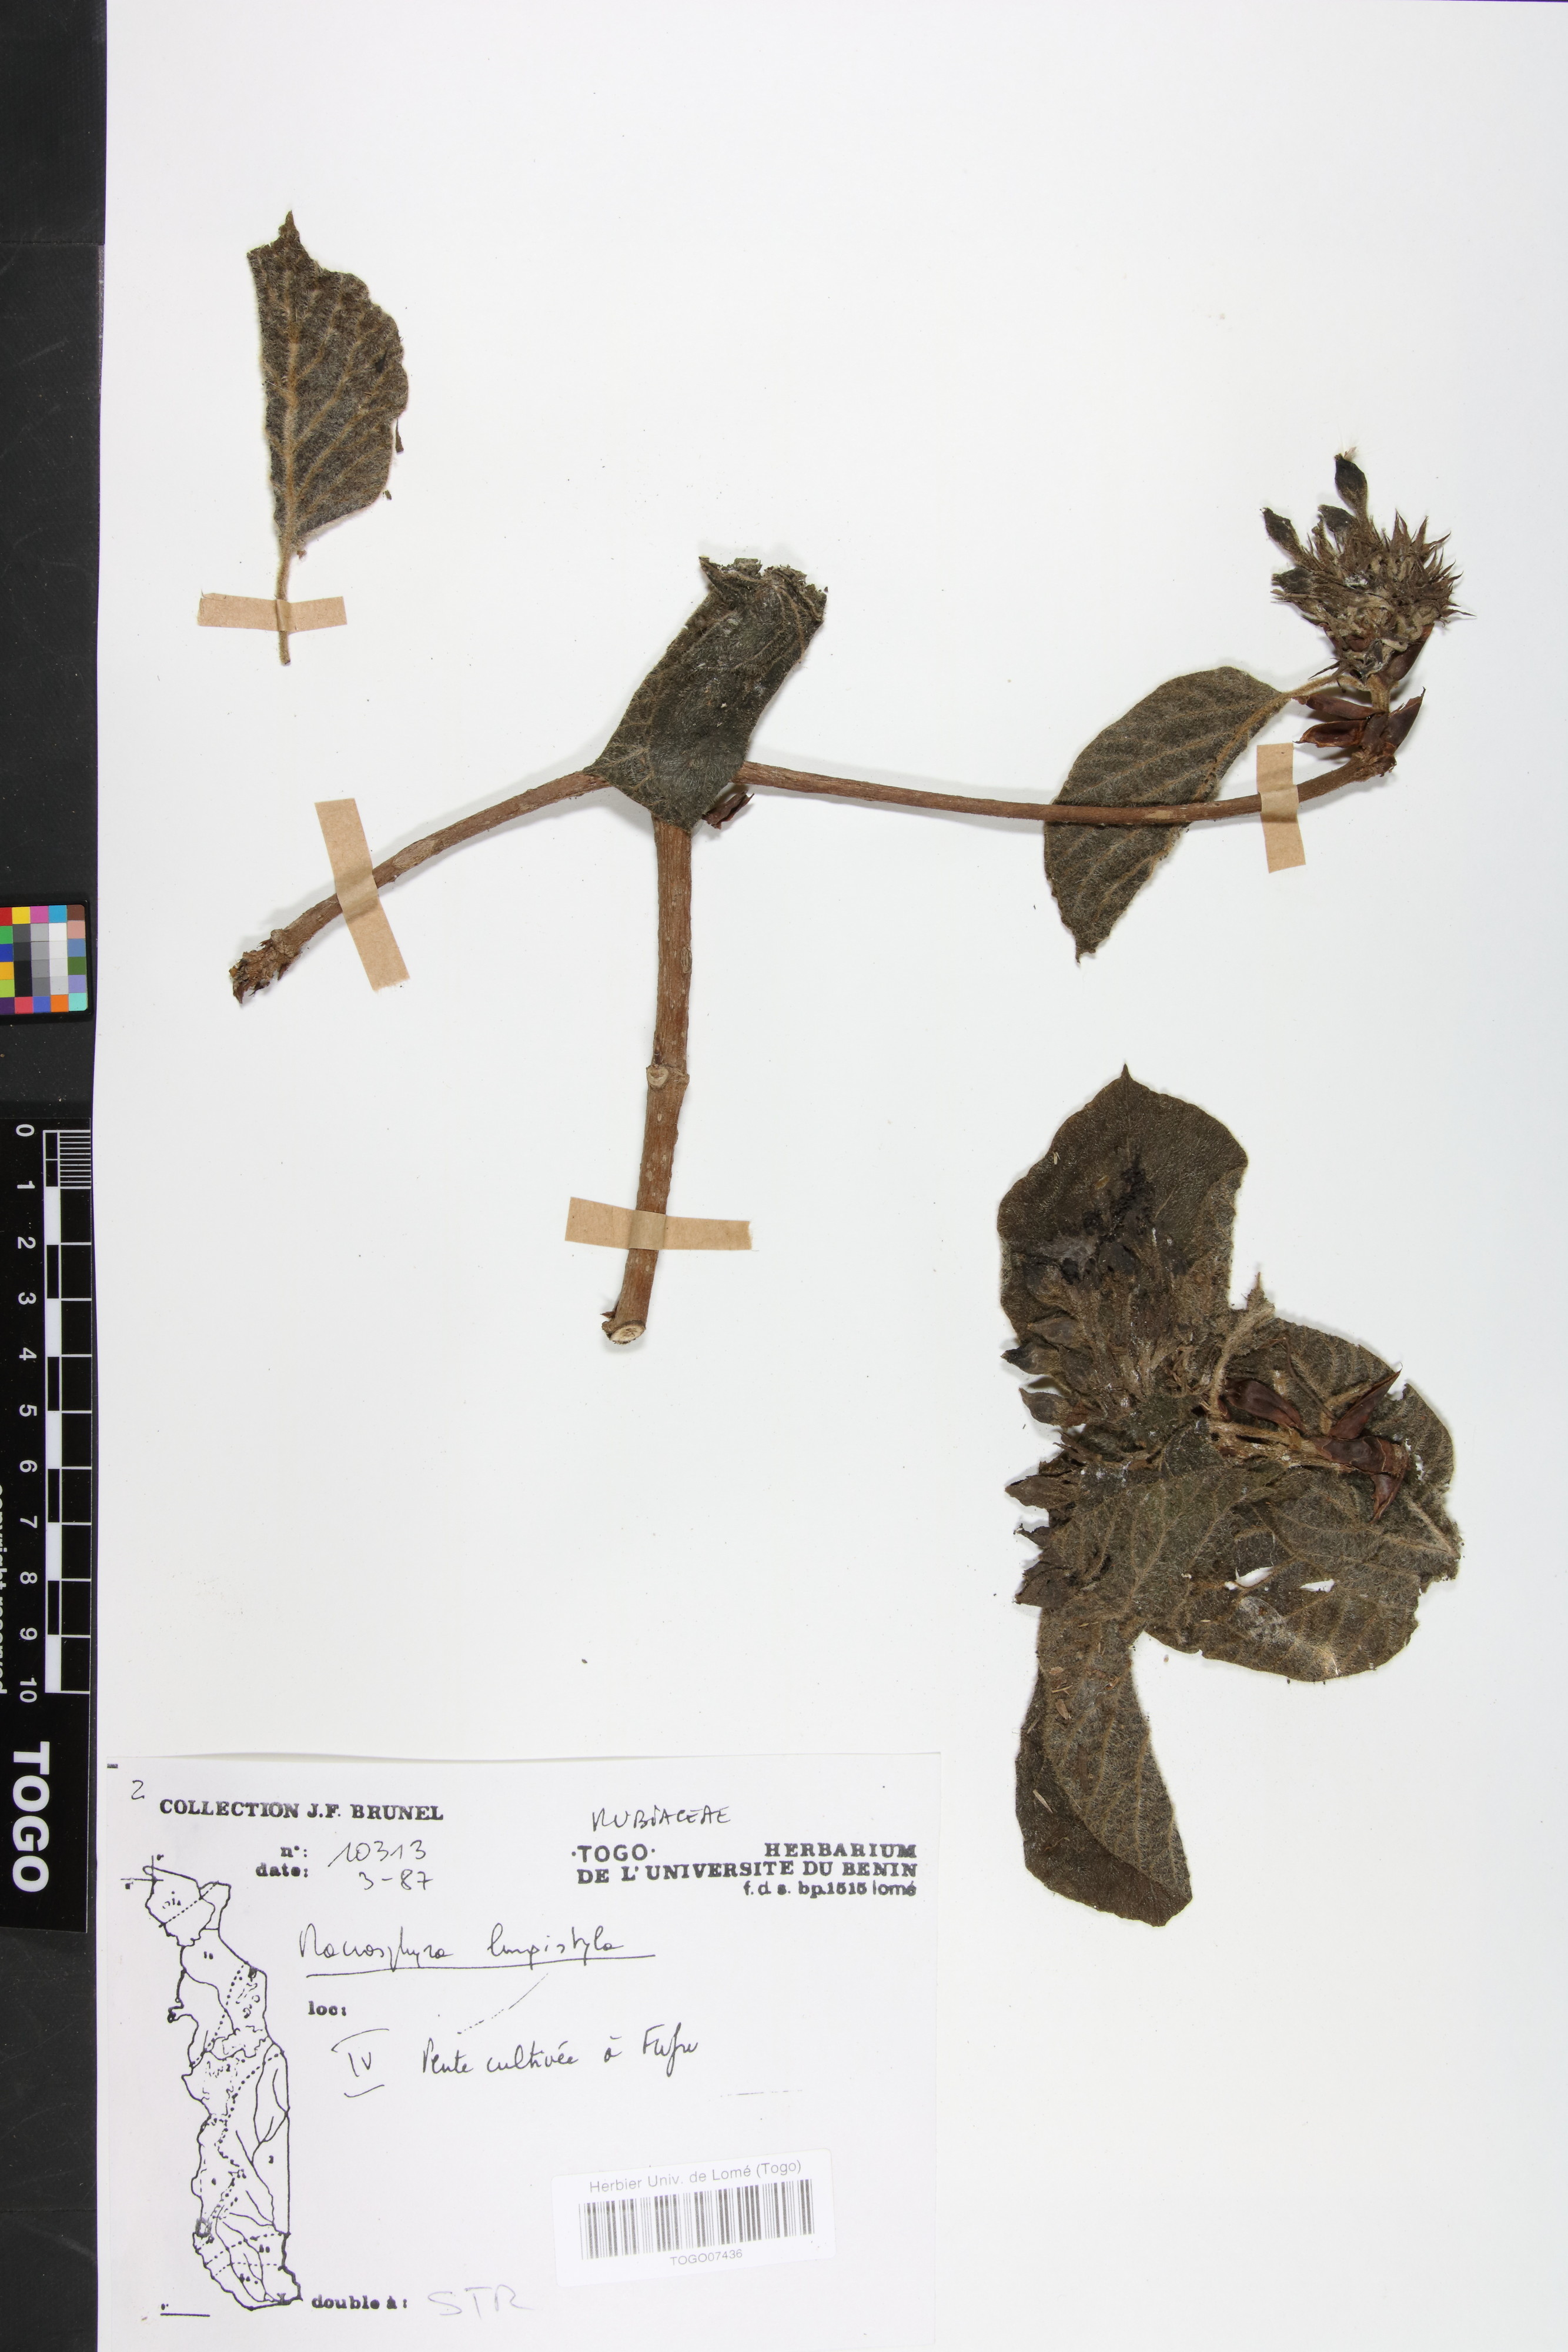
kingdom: Plantae
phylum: Tracheophyta
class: Magnoliopsida
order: Gentianales
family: Rubiaceae
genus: Macrosphyra
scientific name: Macrosphyra longistyla
